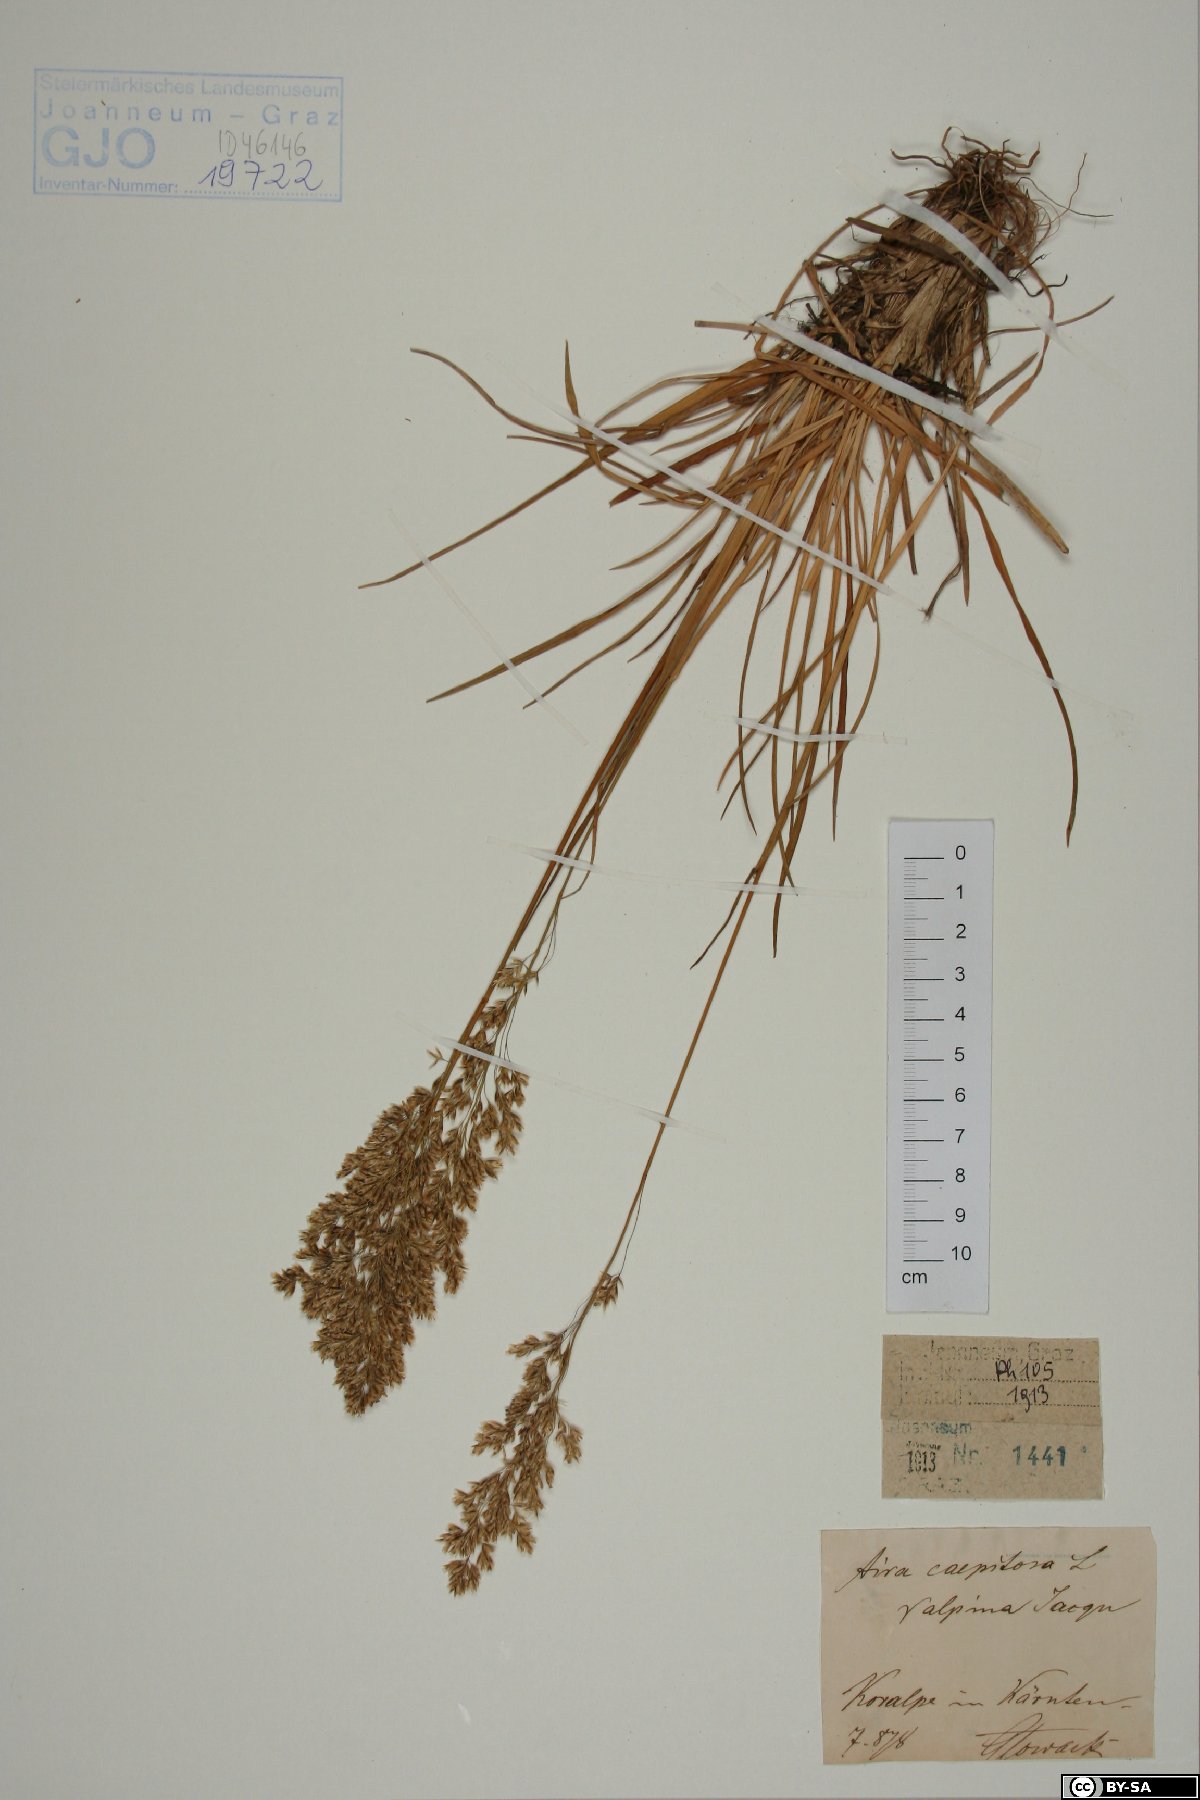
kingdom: Plantae
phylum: Tracheophyta
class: Liliopsida
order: Poales
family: Poaceae
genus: Deschampsia
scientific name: Deschampsia cespitosa
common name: Tufted hair-grass
